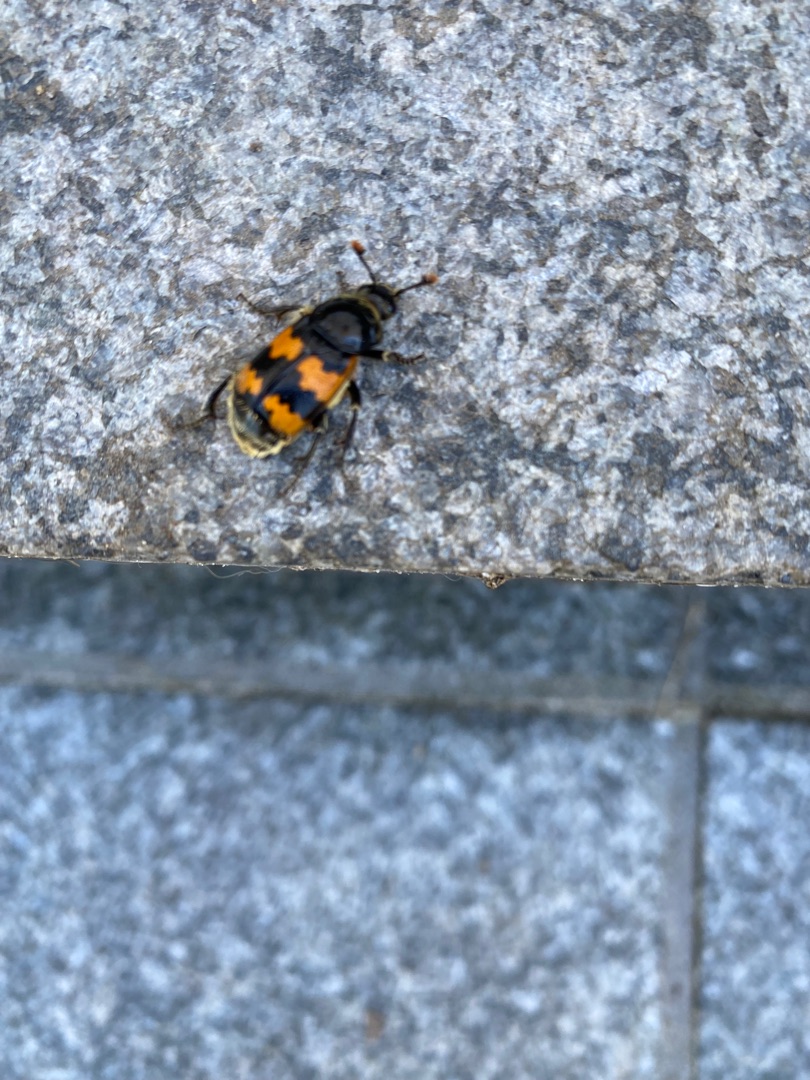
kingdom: Animalia
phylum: Arthropoda
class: Insecta
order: Coleoptera
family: Staphylinidae
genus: Nicrophorus
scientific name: Nicrophorus vespillo
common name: Krumbenet ådselgraver
